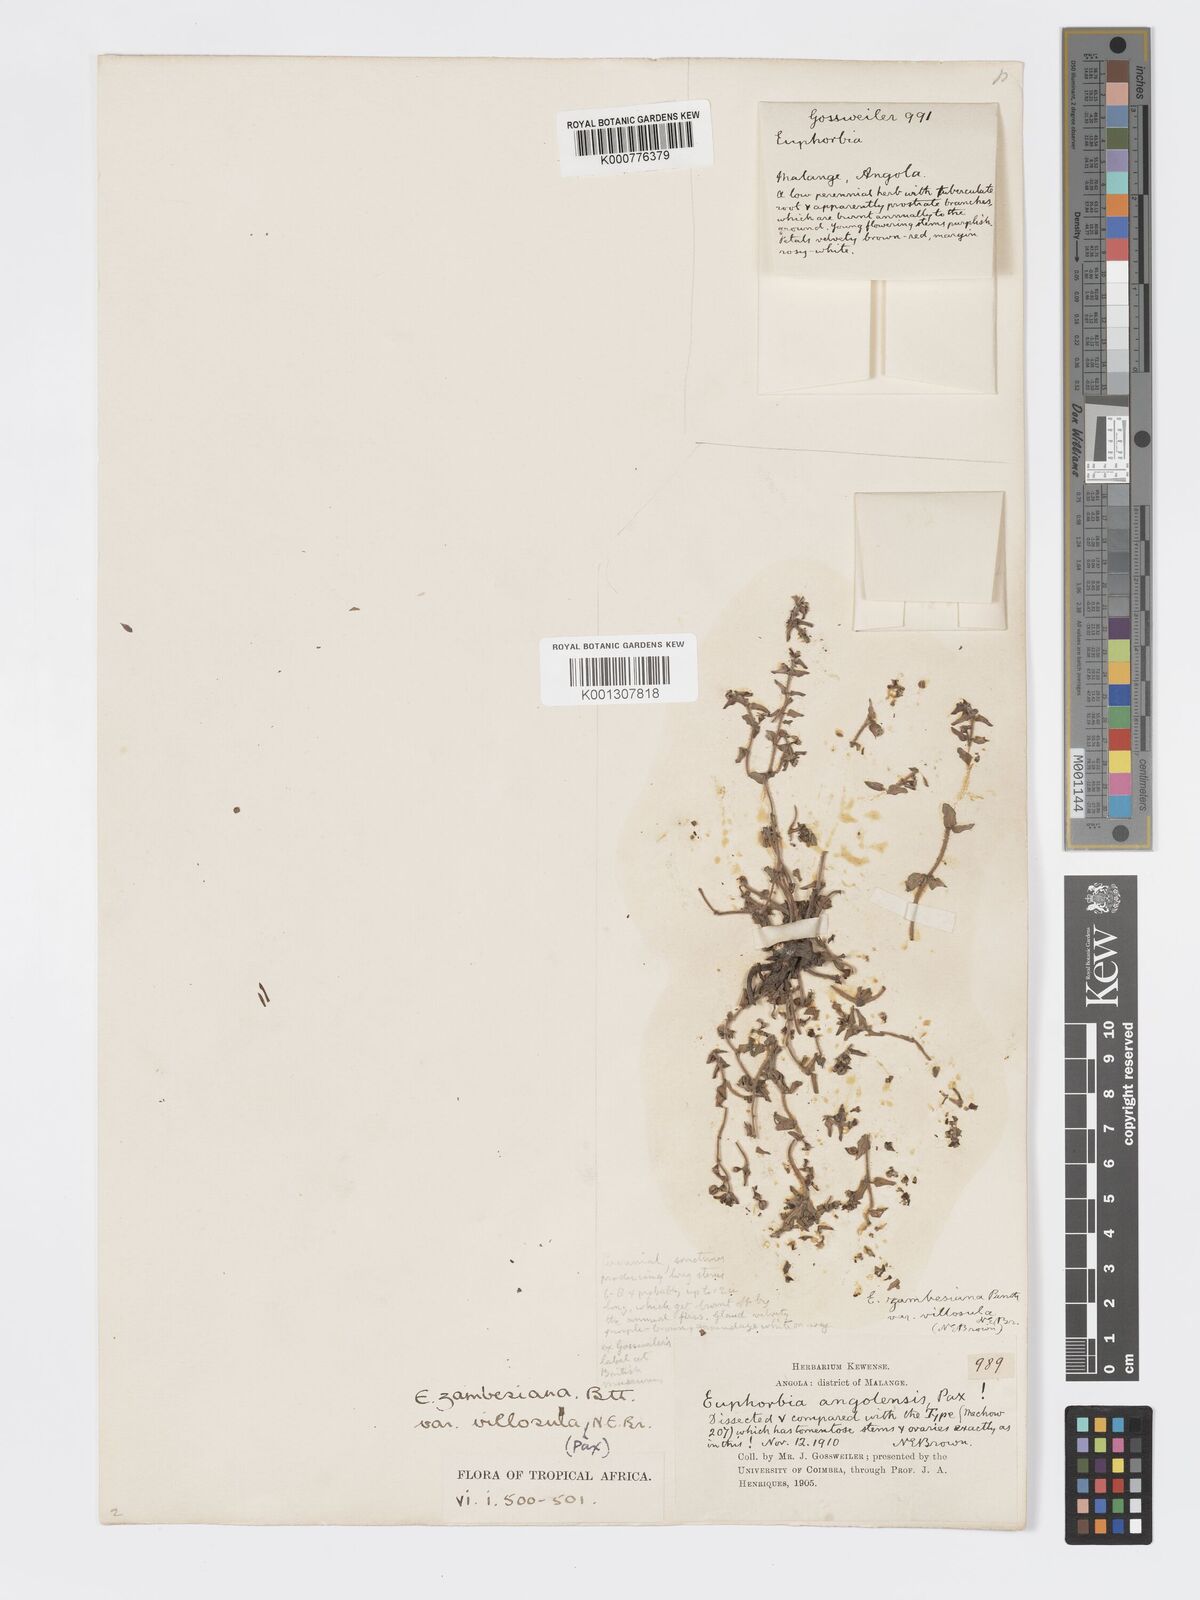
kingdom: Plantae
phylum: Tracheophyta
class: Magnoliopsida
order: Malpighiales
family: Euphorbiaceae
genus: Euphorbia
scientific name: Euphorbia zambesiana
